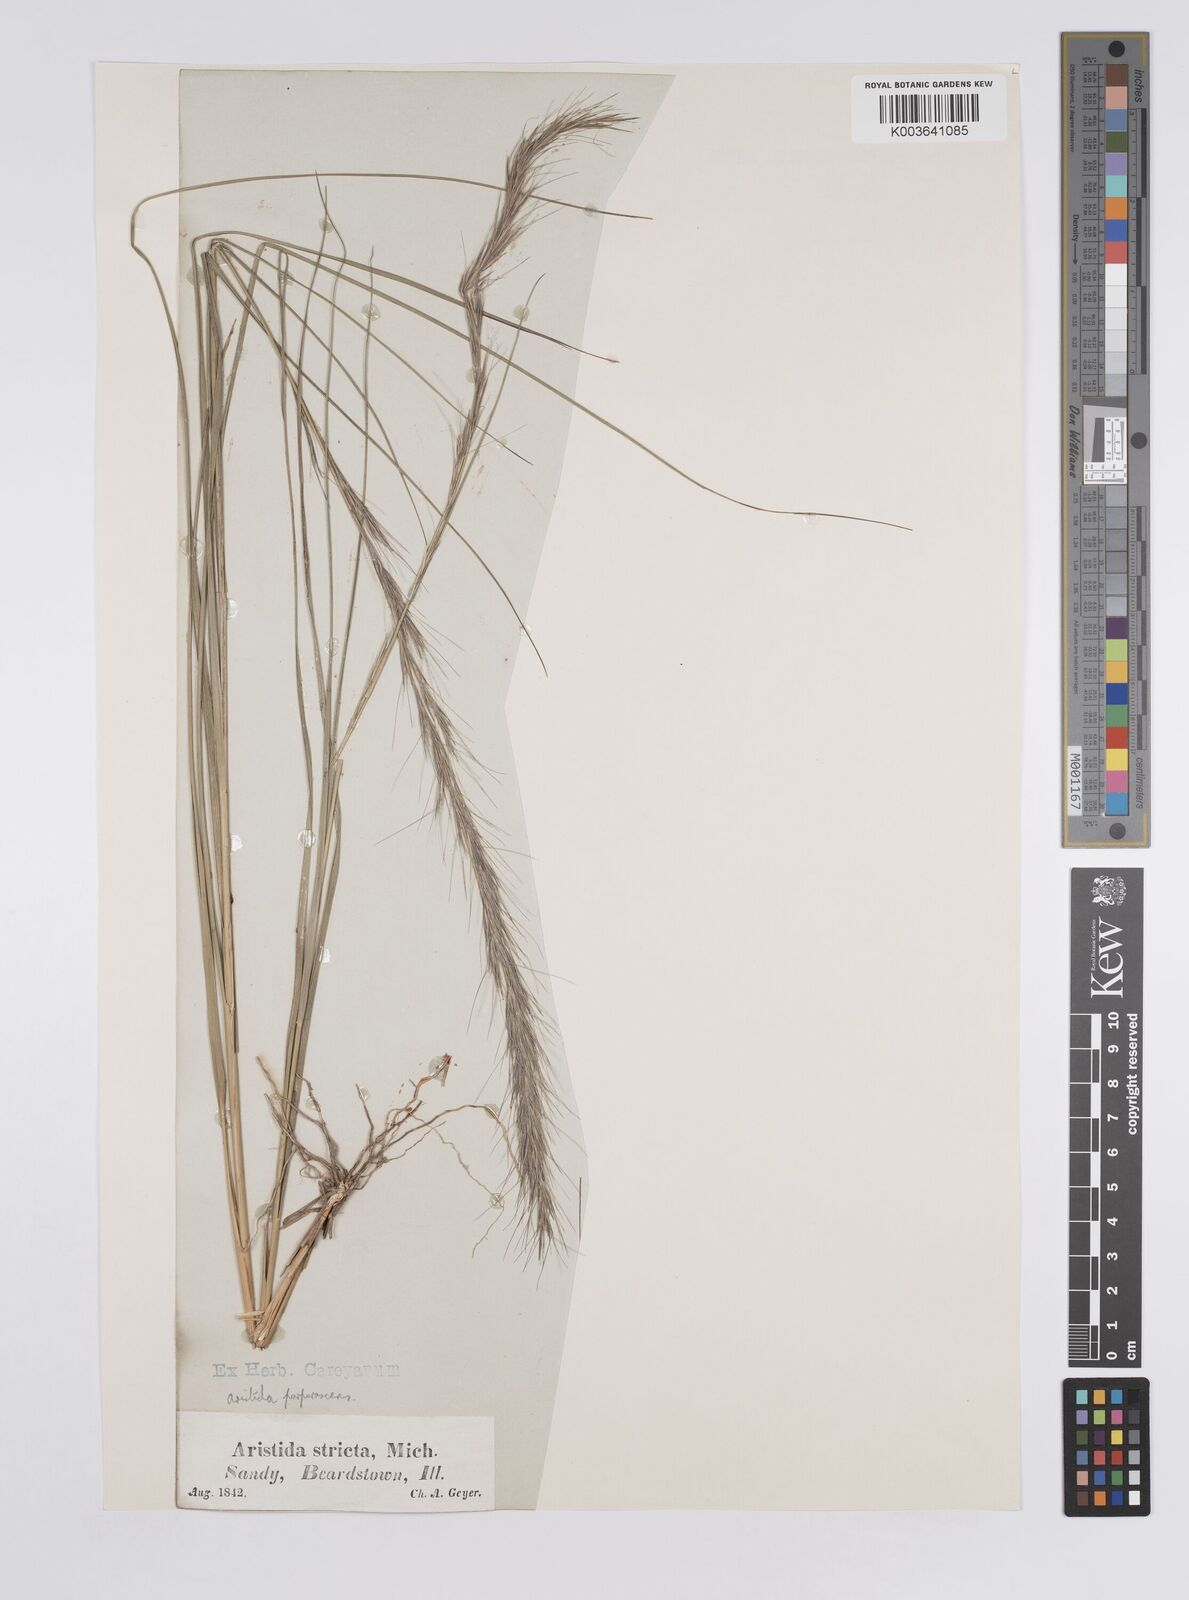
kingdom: Plantae
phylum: Tracheophyta
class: Liliopsida
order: Poales
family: Poaceae
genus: Aristida
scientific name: Aristida purpurascens
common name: Arrow-feather
